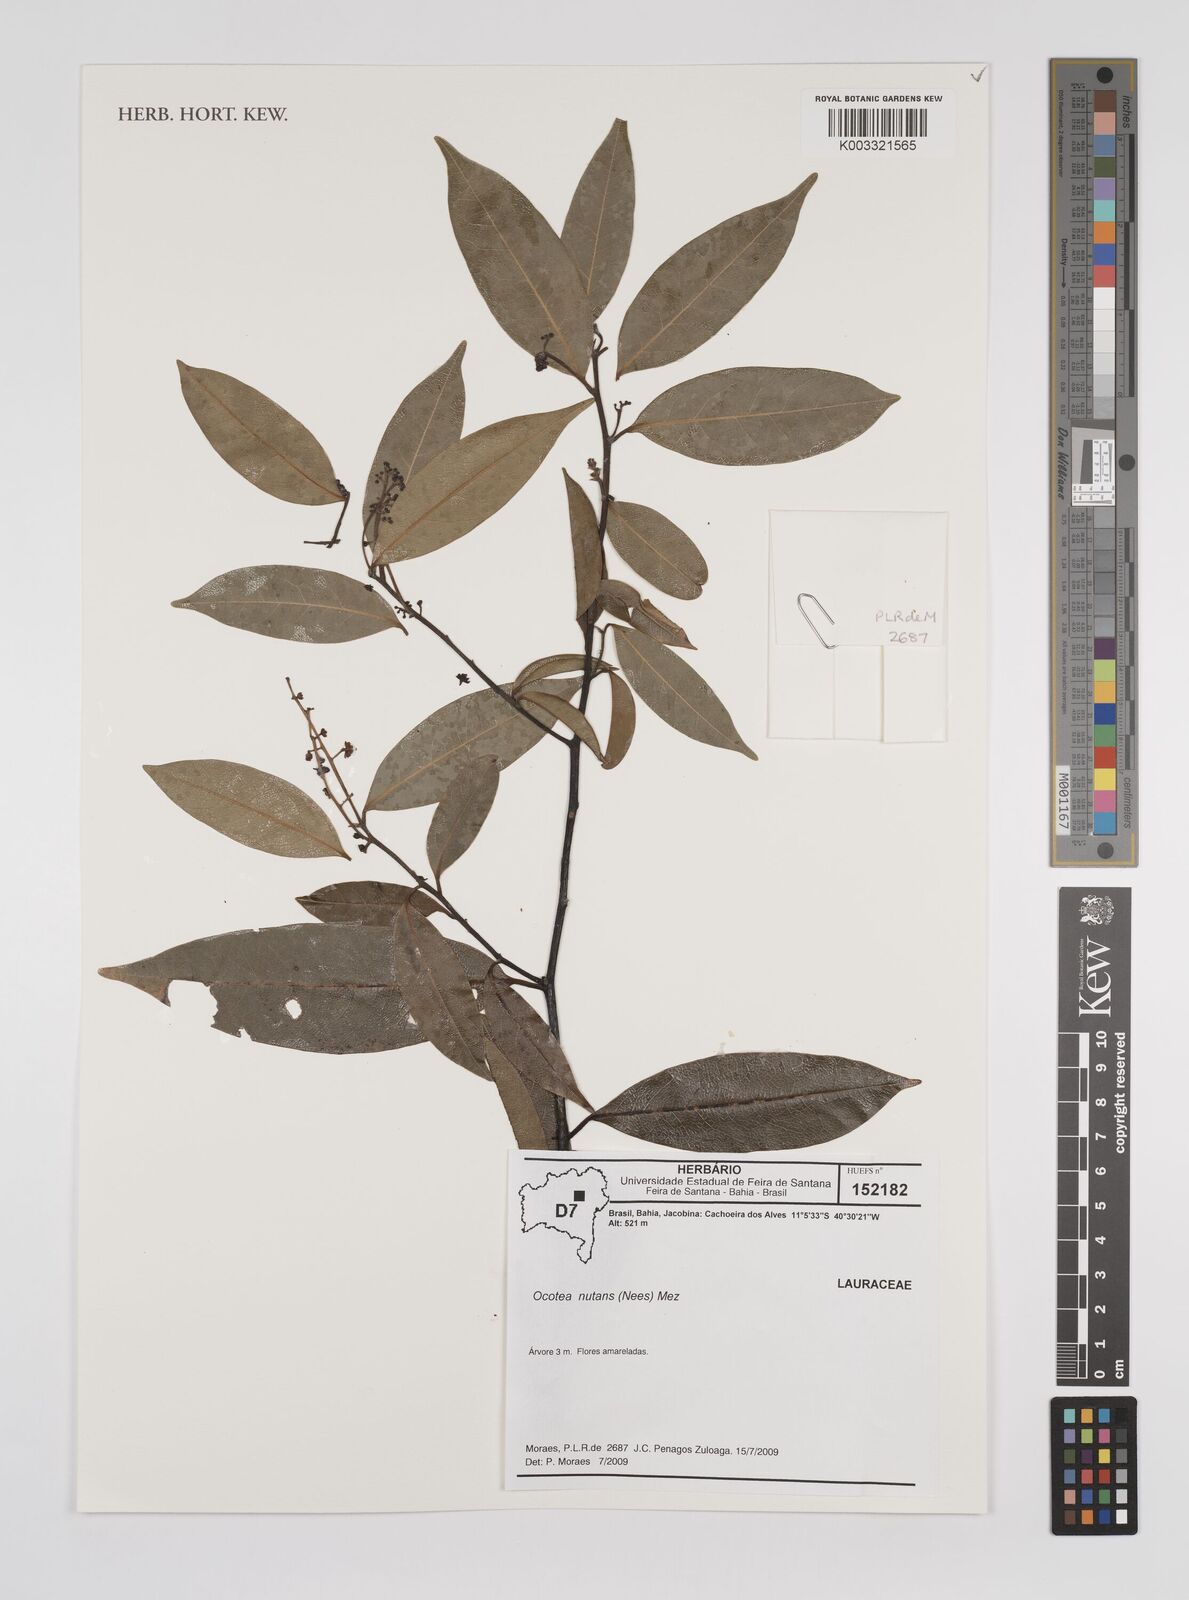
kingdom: Plantae
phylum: Tracheophyta
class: Magnoliopsida
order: Laurales
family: Lauraceae
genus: Mespilodaphne
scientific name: Mespilodaphne nutans
